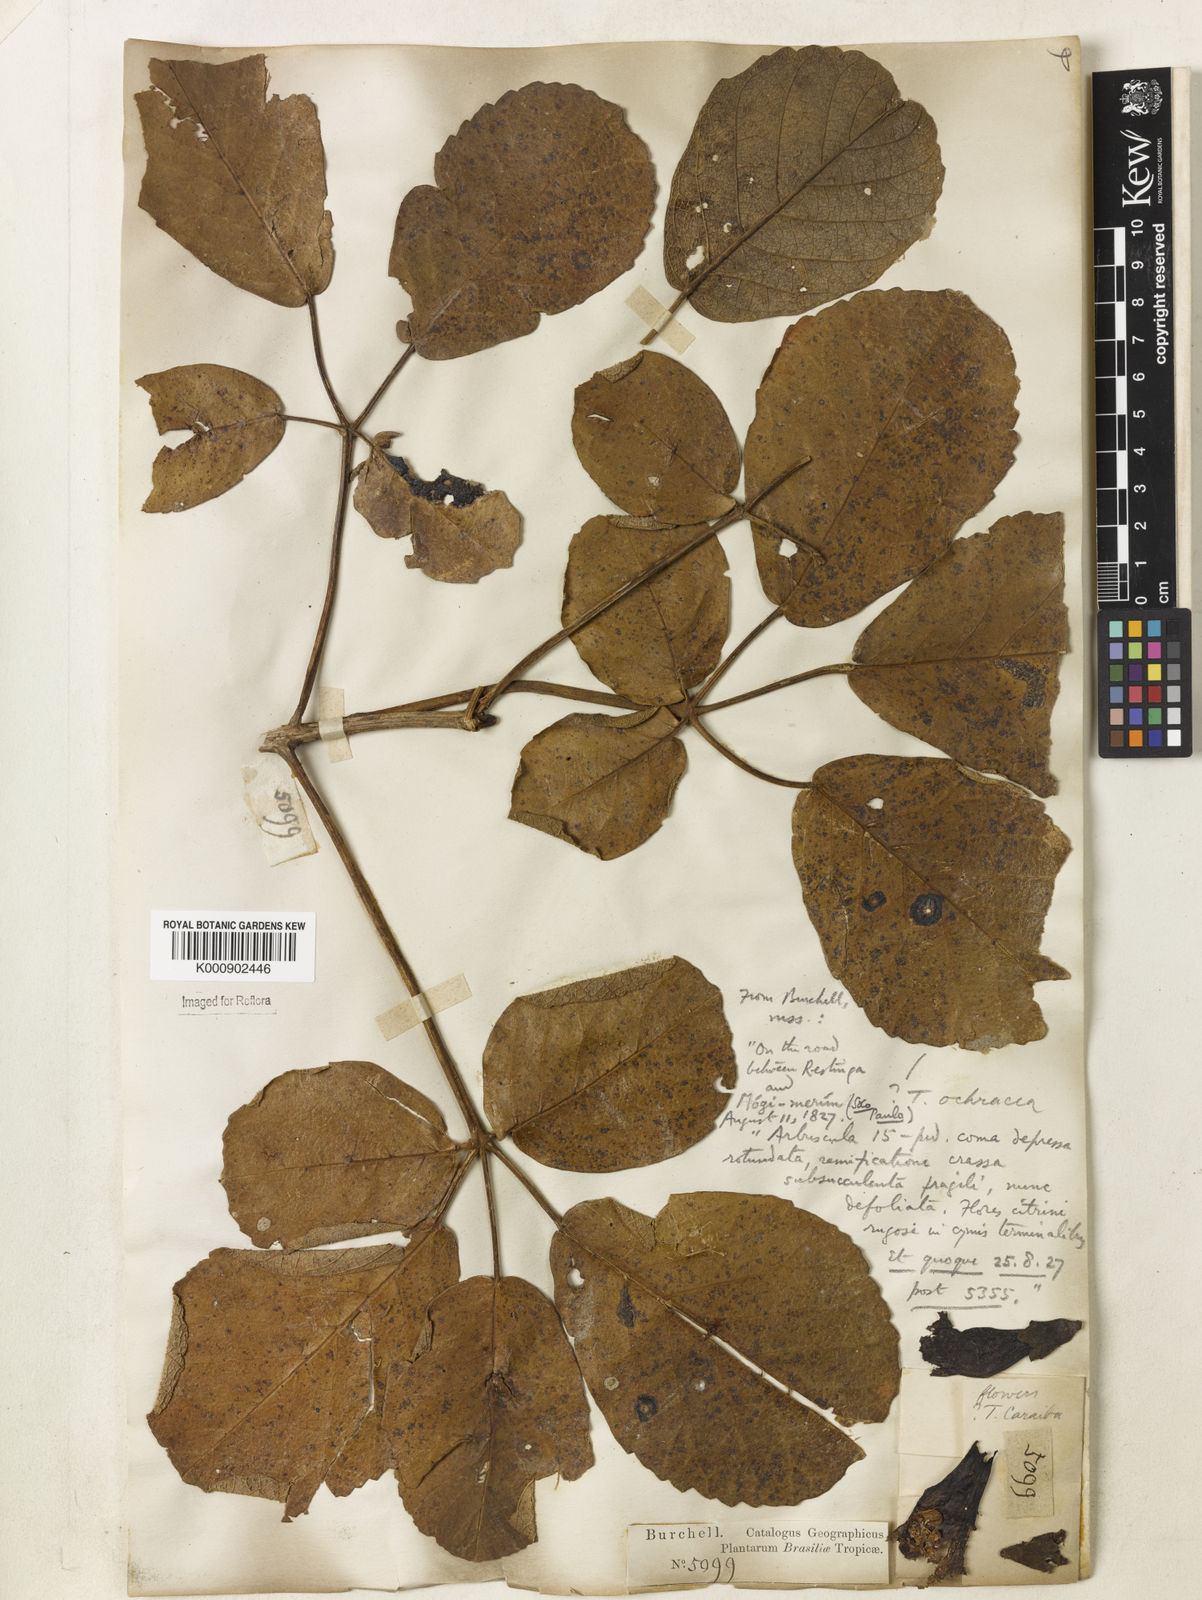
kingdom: Plantae
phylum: Tracheophyta
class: Magnoliopsida
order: Lamiales
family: Bignoniaceae
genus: Handroanthus
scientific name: Handroanthus ochraceus
